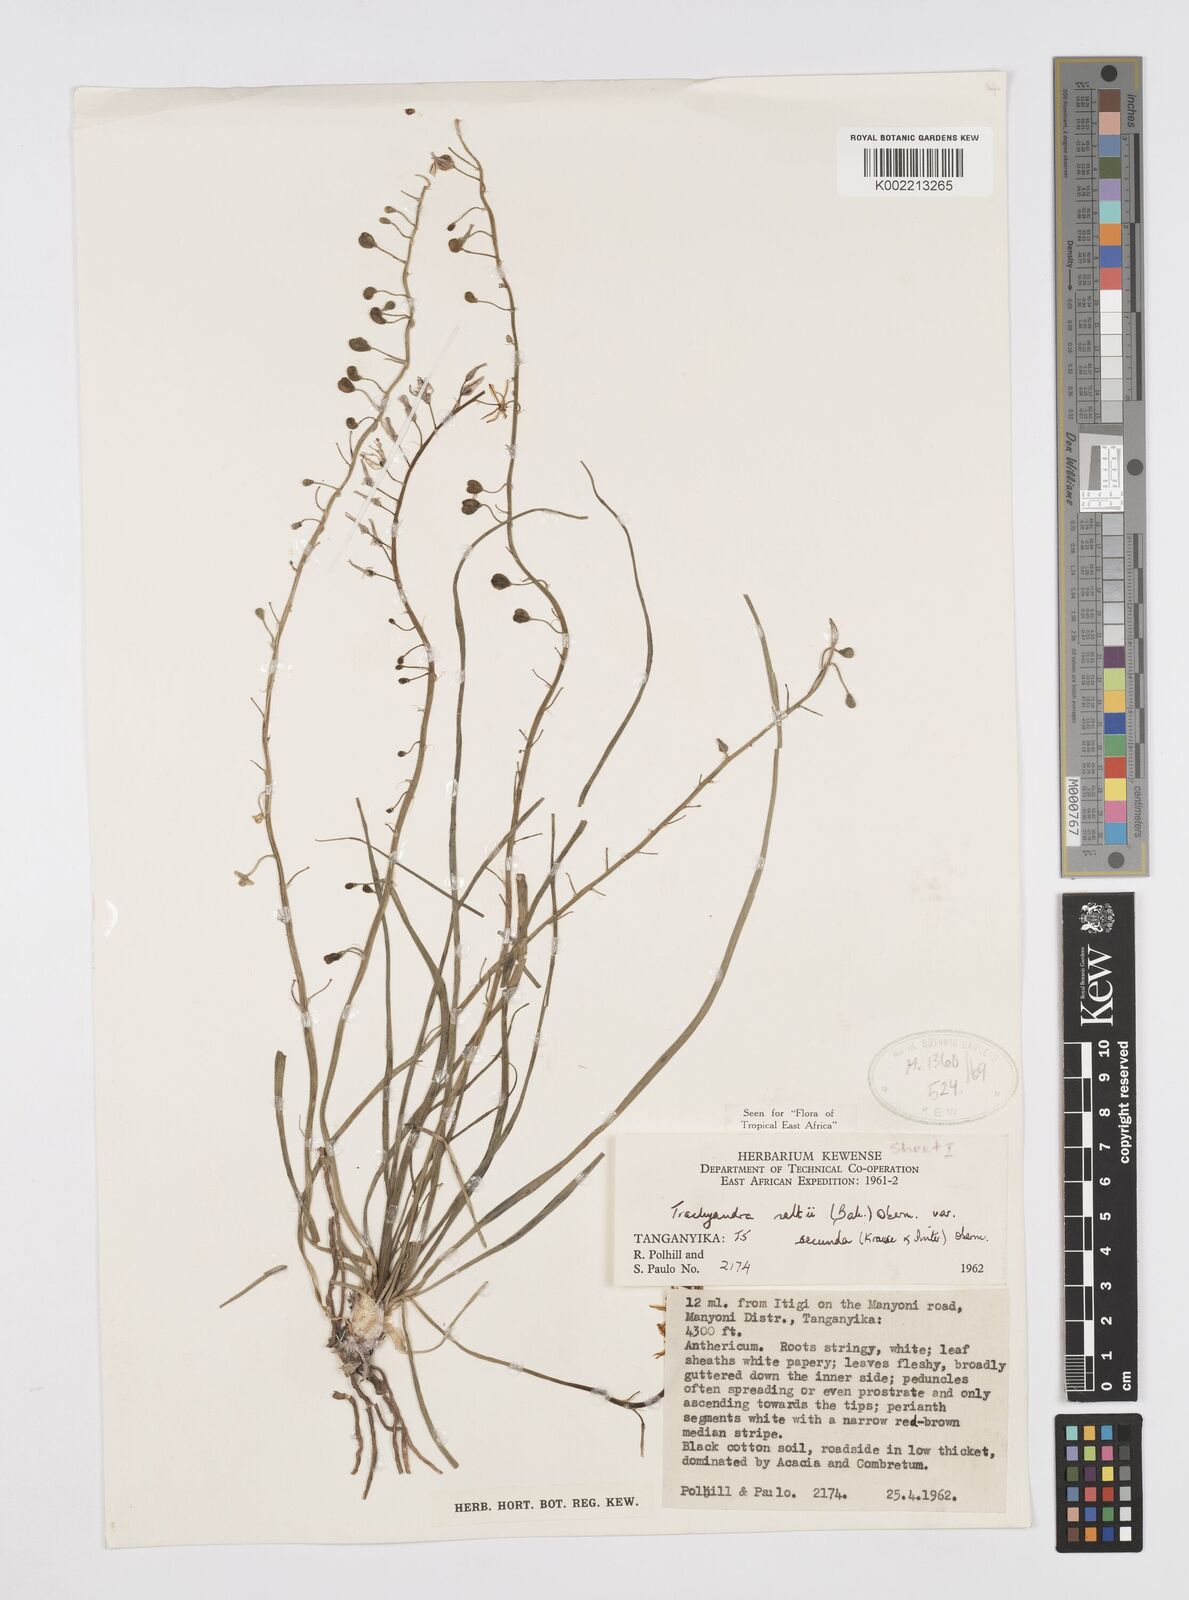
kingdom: Plantae
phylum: Tracheophyta
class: Liliopsida
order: Asparagales
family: Asphodelaceae
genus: Trachyandra
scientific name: Trachyandra saltii
